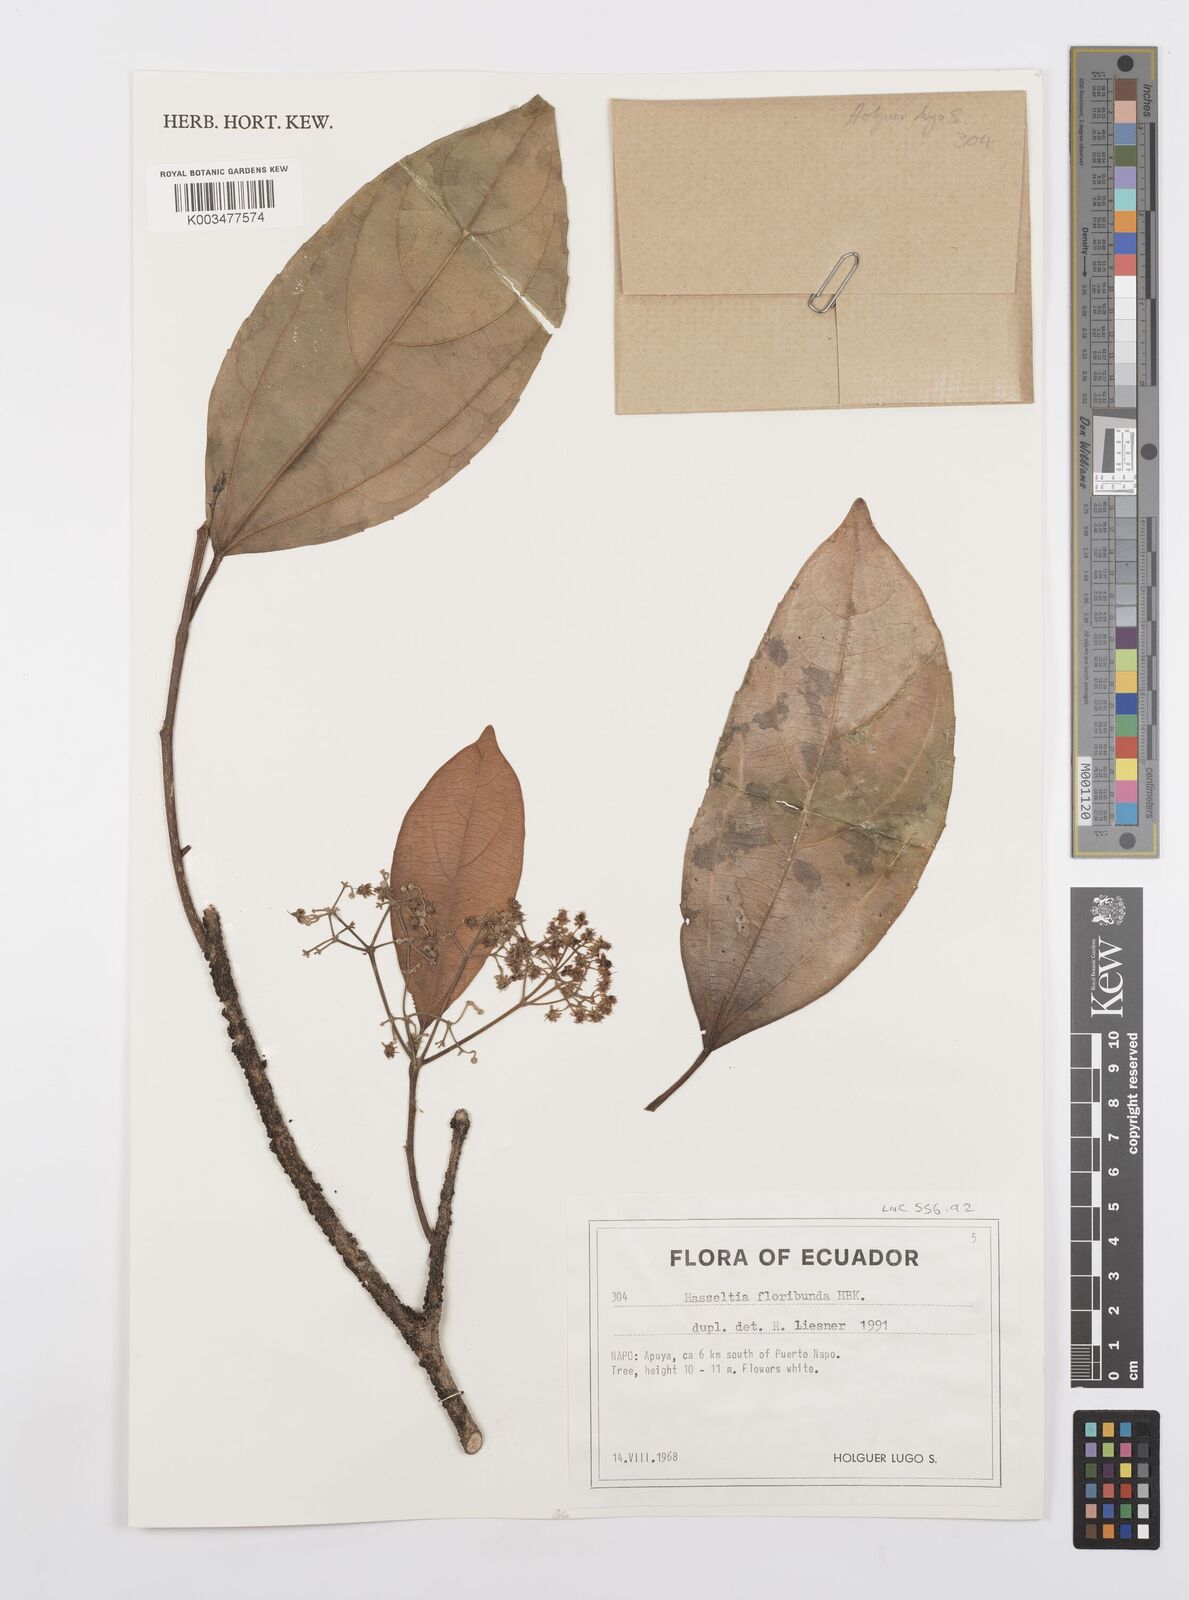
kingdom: Plantae
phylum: Tracheophyta
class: Magnoliopsida
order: Malpighiales
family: Salicaceae
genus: Hasseltia
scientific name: Hasseltia floribunda
